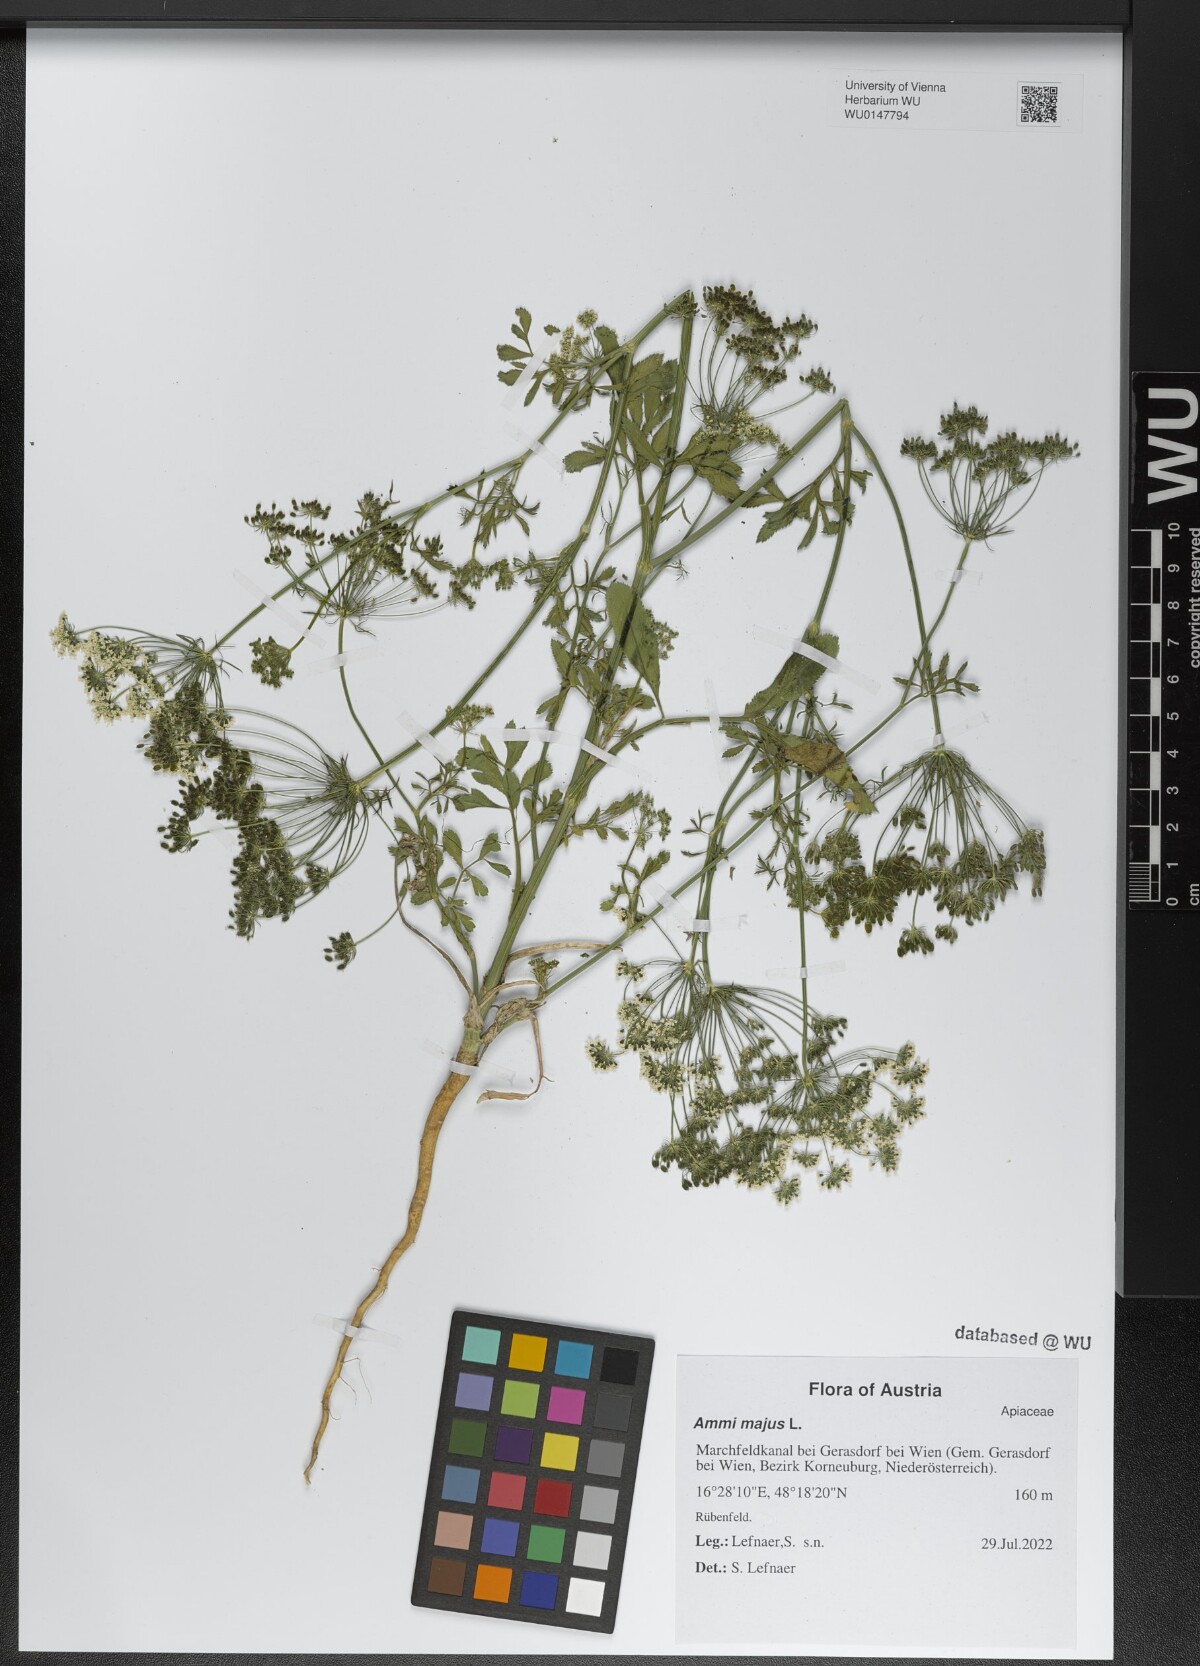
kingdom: Plantae
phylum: Tracheophyta
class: Magnoliopsida
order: Apiales
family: Apiaceae
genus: Ammi
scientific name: Ammi majus
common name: Bullwort
